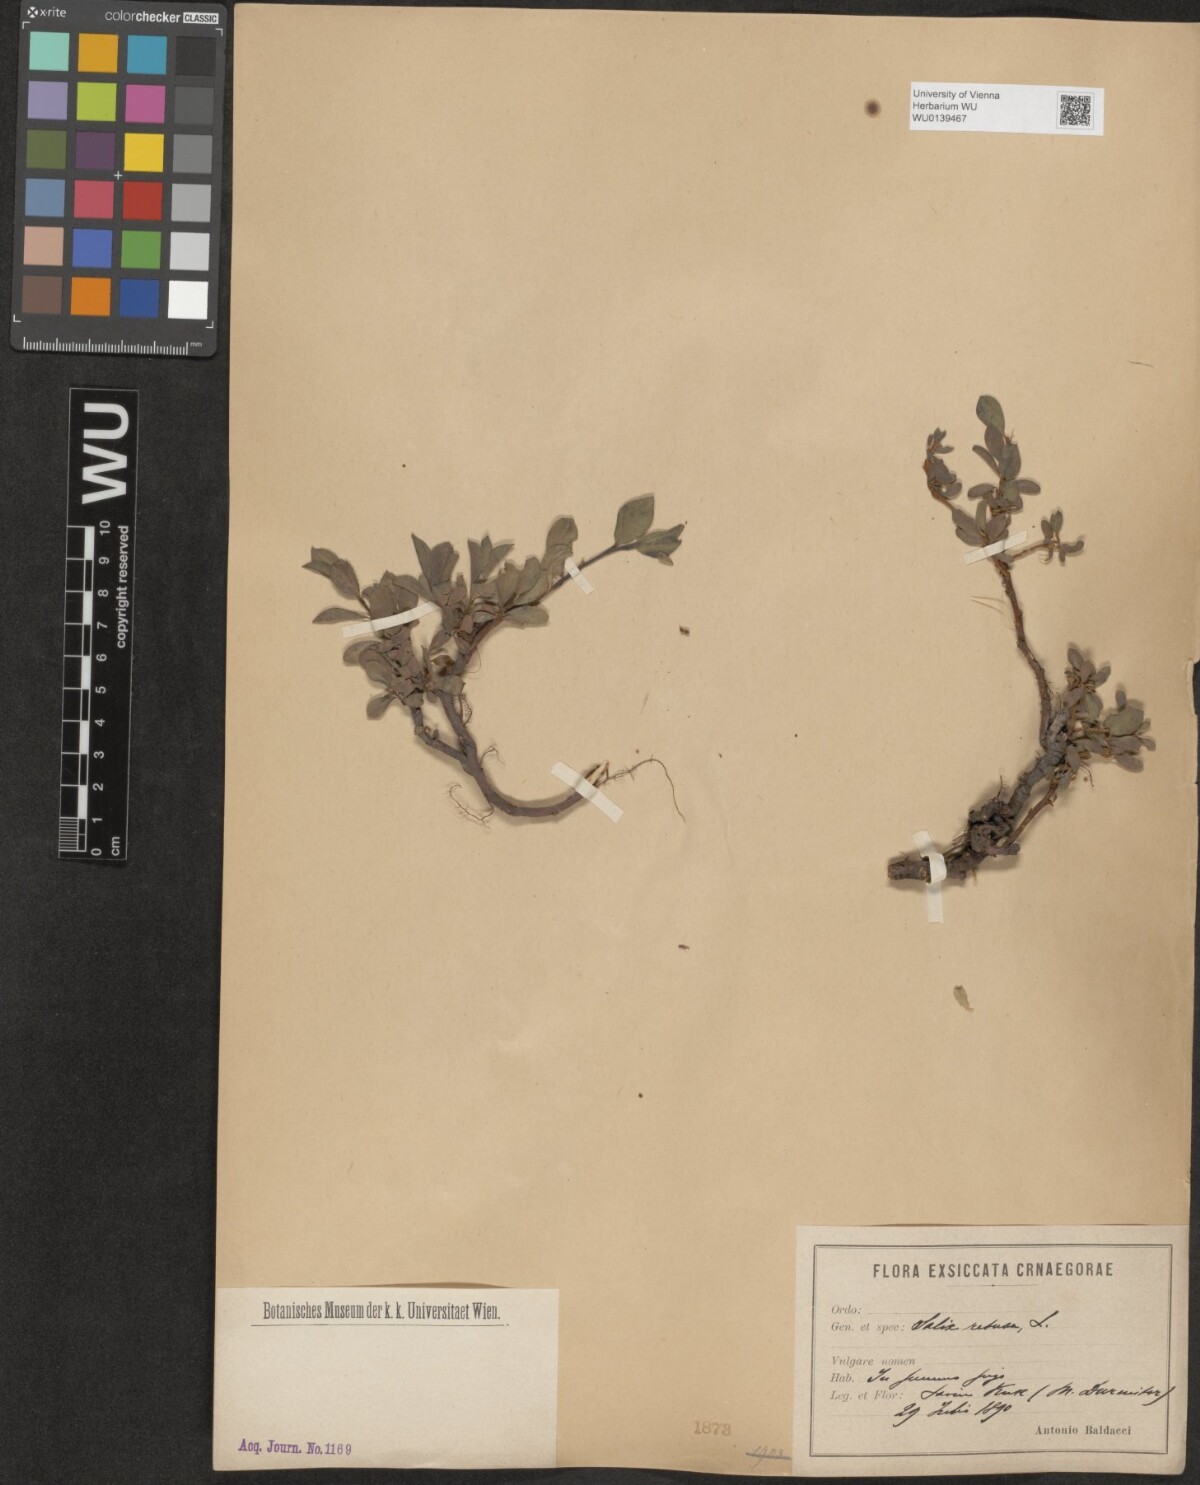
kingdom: Plantae
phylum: Tracheophyta
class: Magnoliopsida
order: Malpighiales
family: Salicaceae
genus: Salix
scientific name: Salix retusa
